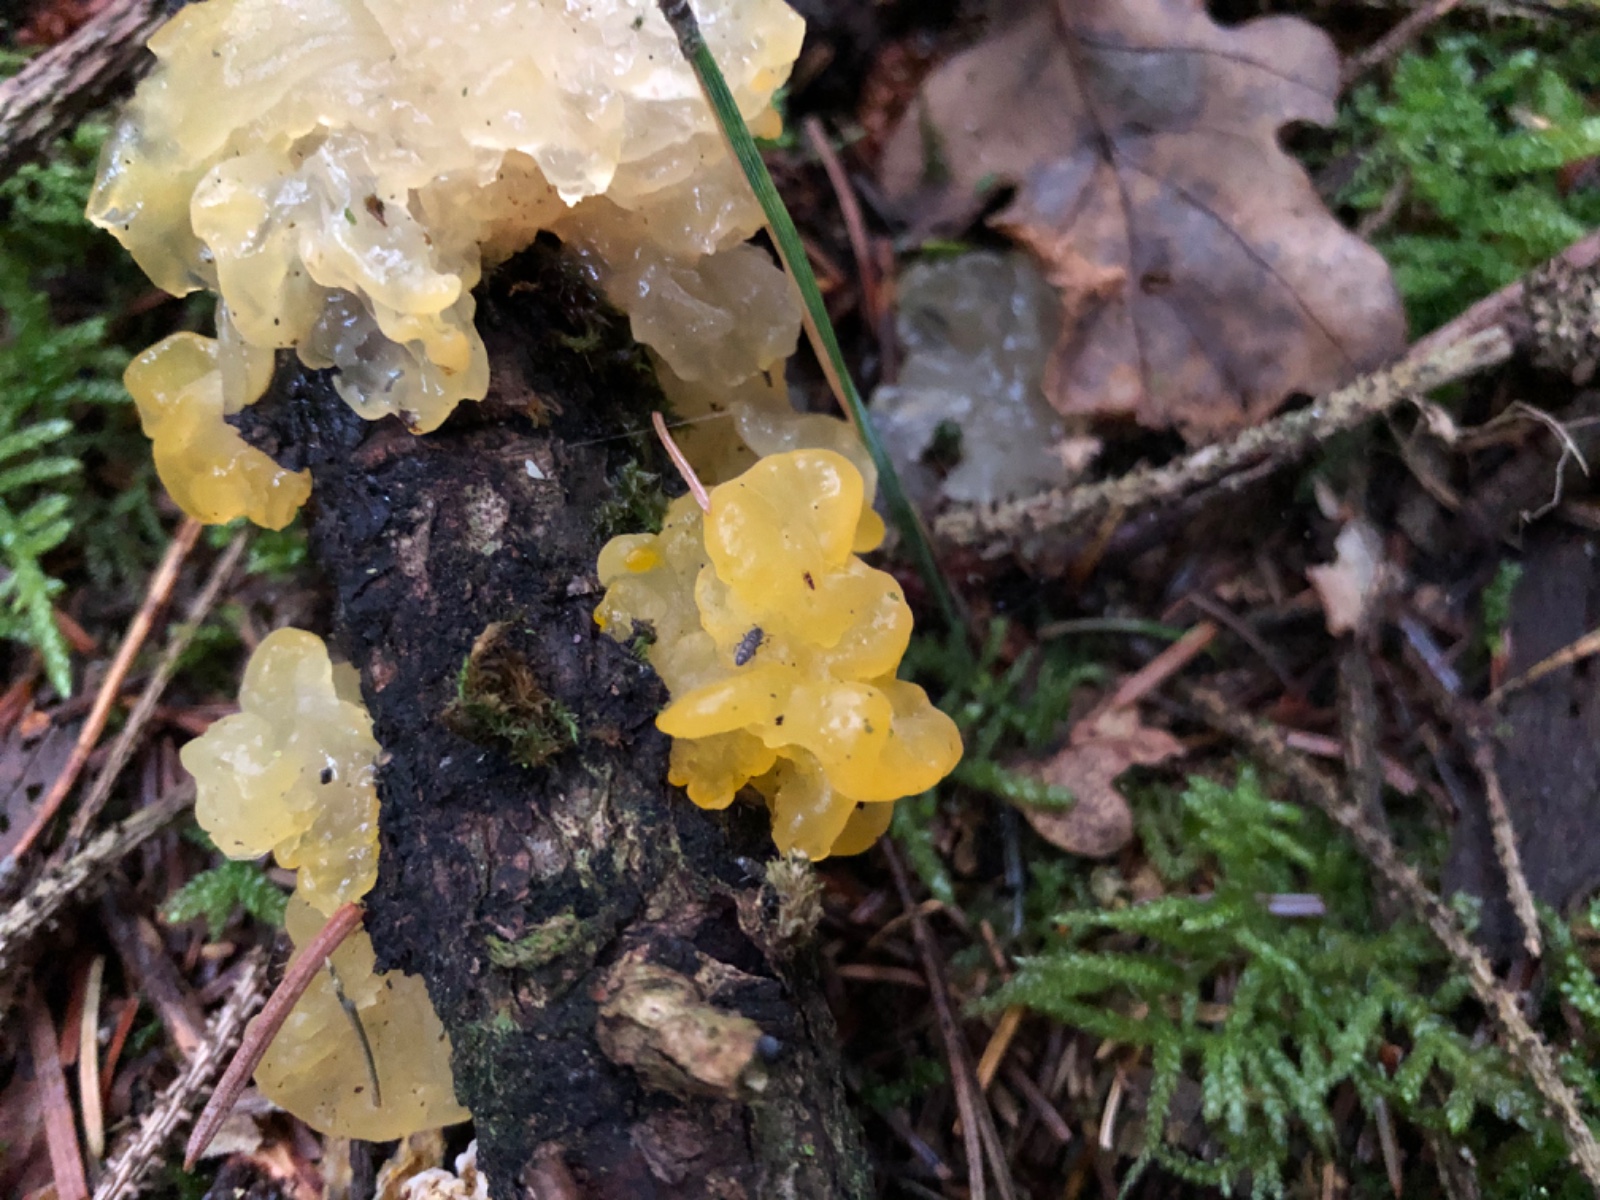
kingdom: Fungi
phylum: Basidiomycota
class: Tremellomycetes
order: Tremellales
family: Tremellaceae
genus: Tremella
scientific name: Tremella mesenterica
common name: gul bævresvamp
